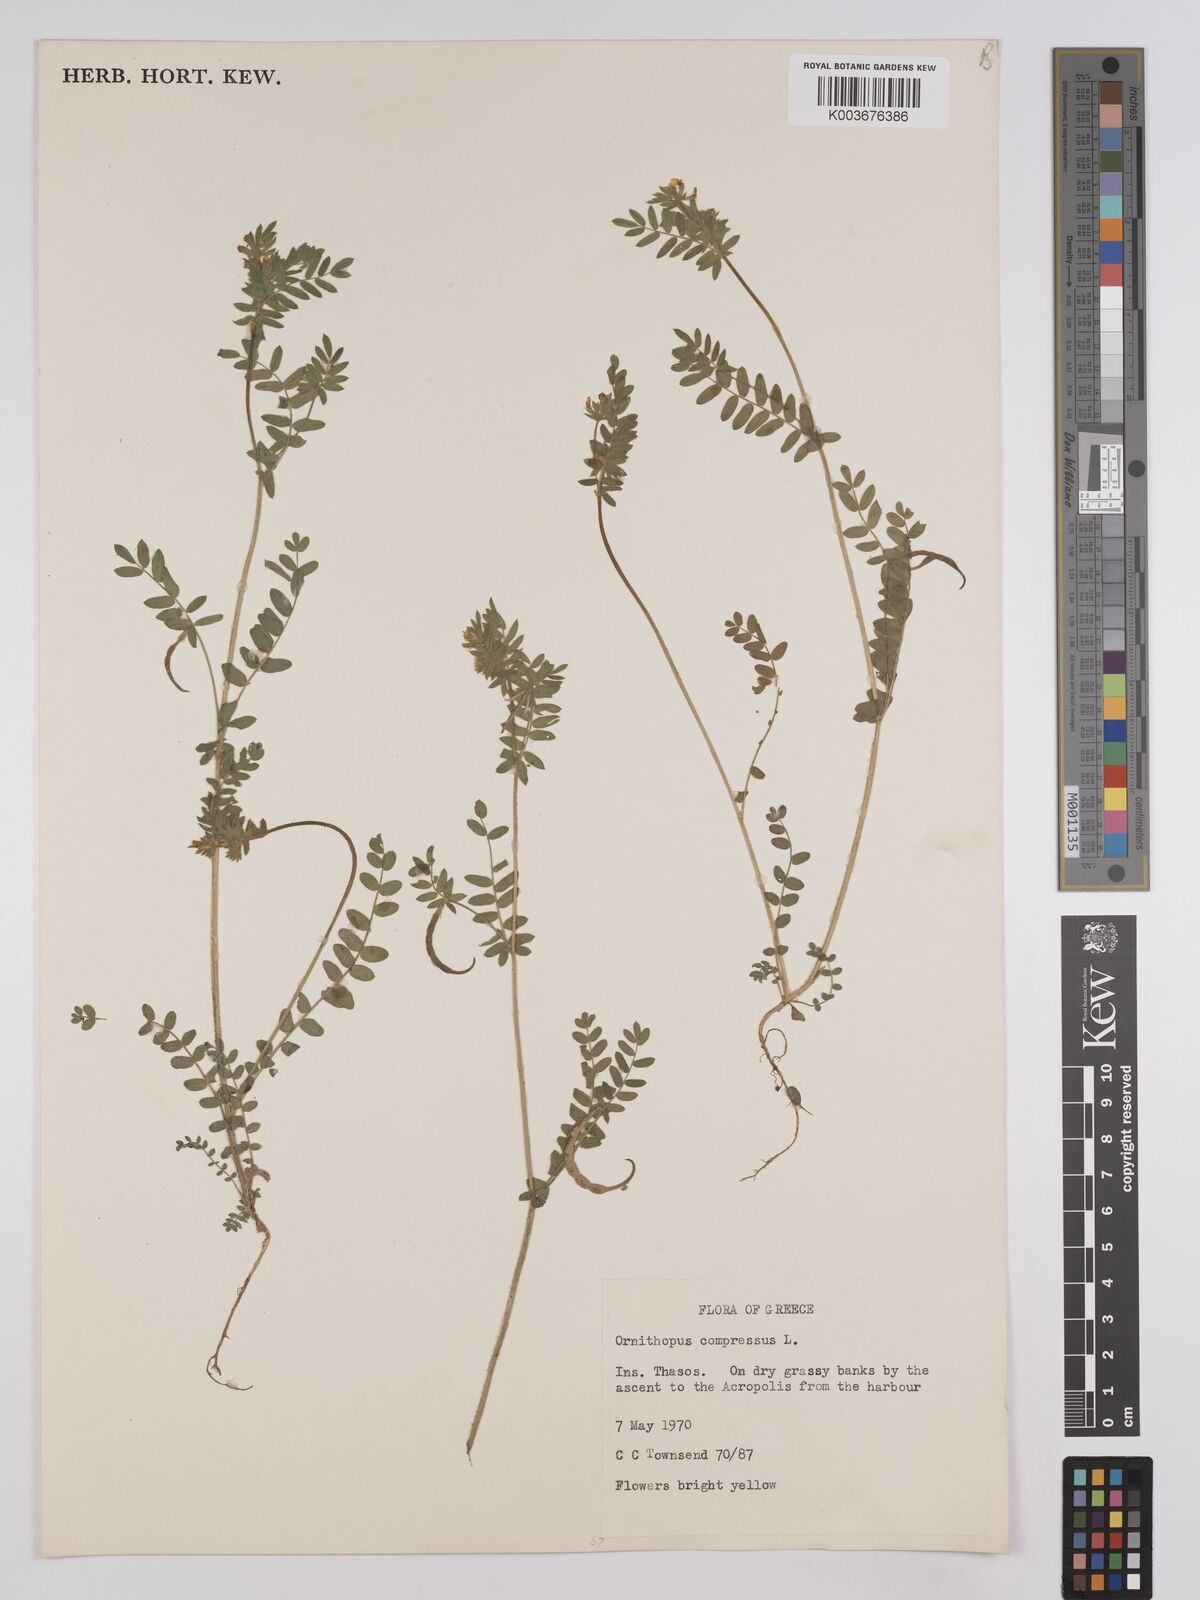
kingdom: Plantae
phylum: Tracheophyta
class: Magnoliopsida
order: Fabales
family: Fabaceae
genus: Ornithopus
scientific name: Ornithopus compressus
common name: Yellow serradella
